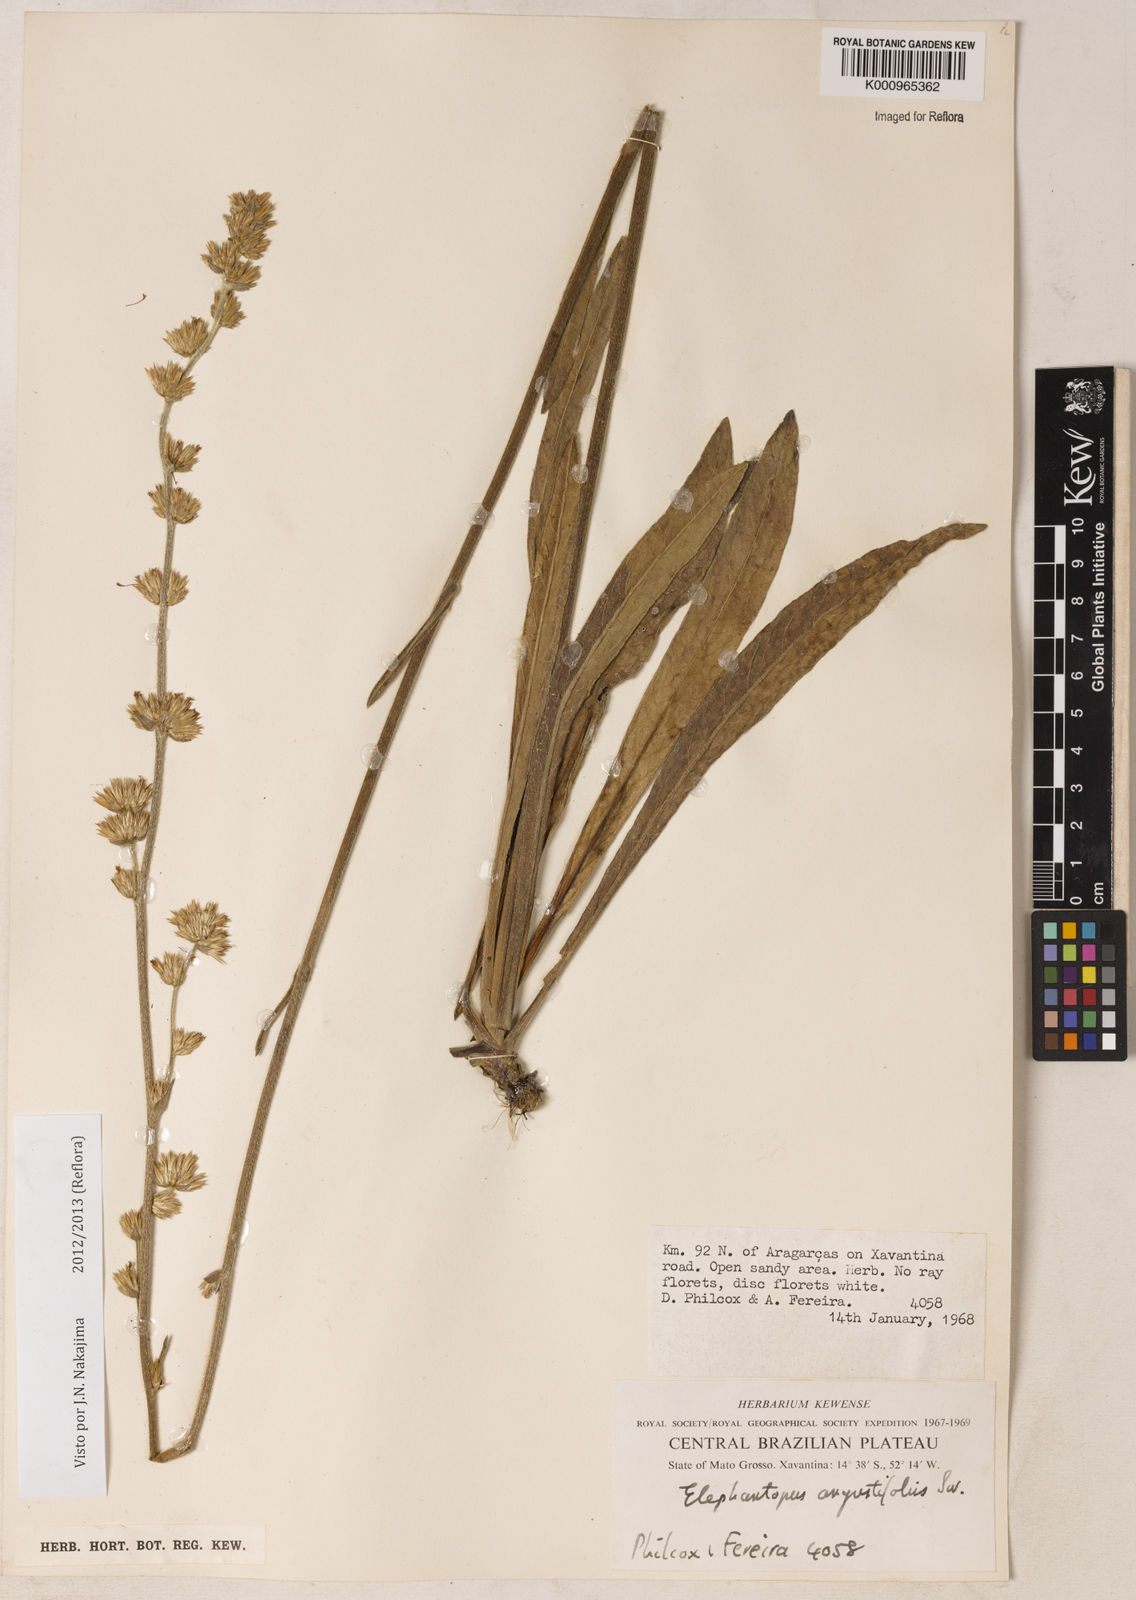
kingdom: Plantae
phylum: Tracheophyta
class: Magnoliopsida
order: Asterales
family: Asteraceae
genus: Orthopappus
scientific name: Orthopappus angustifolius
